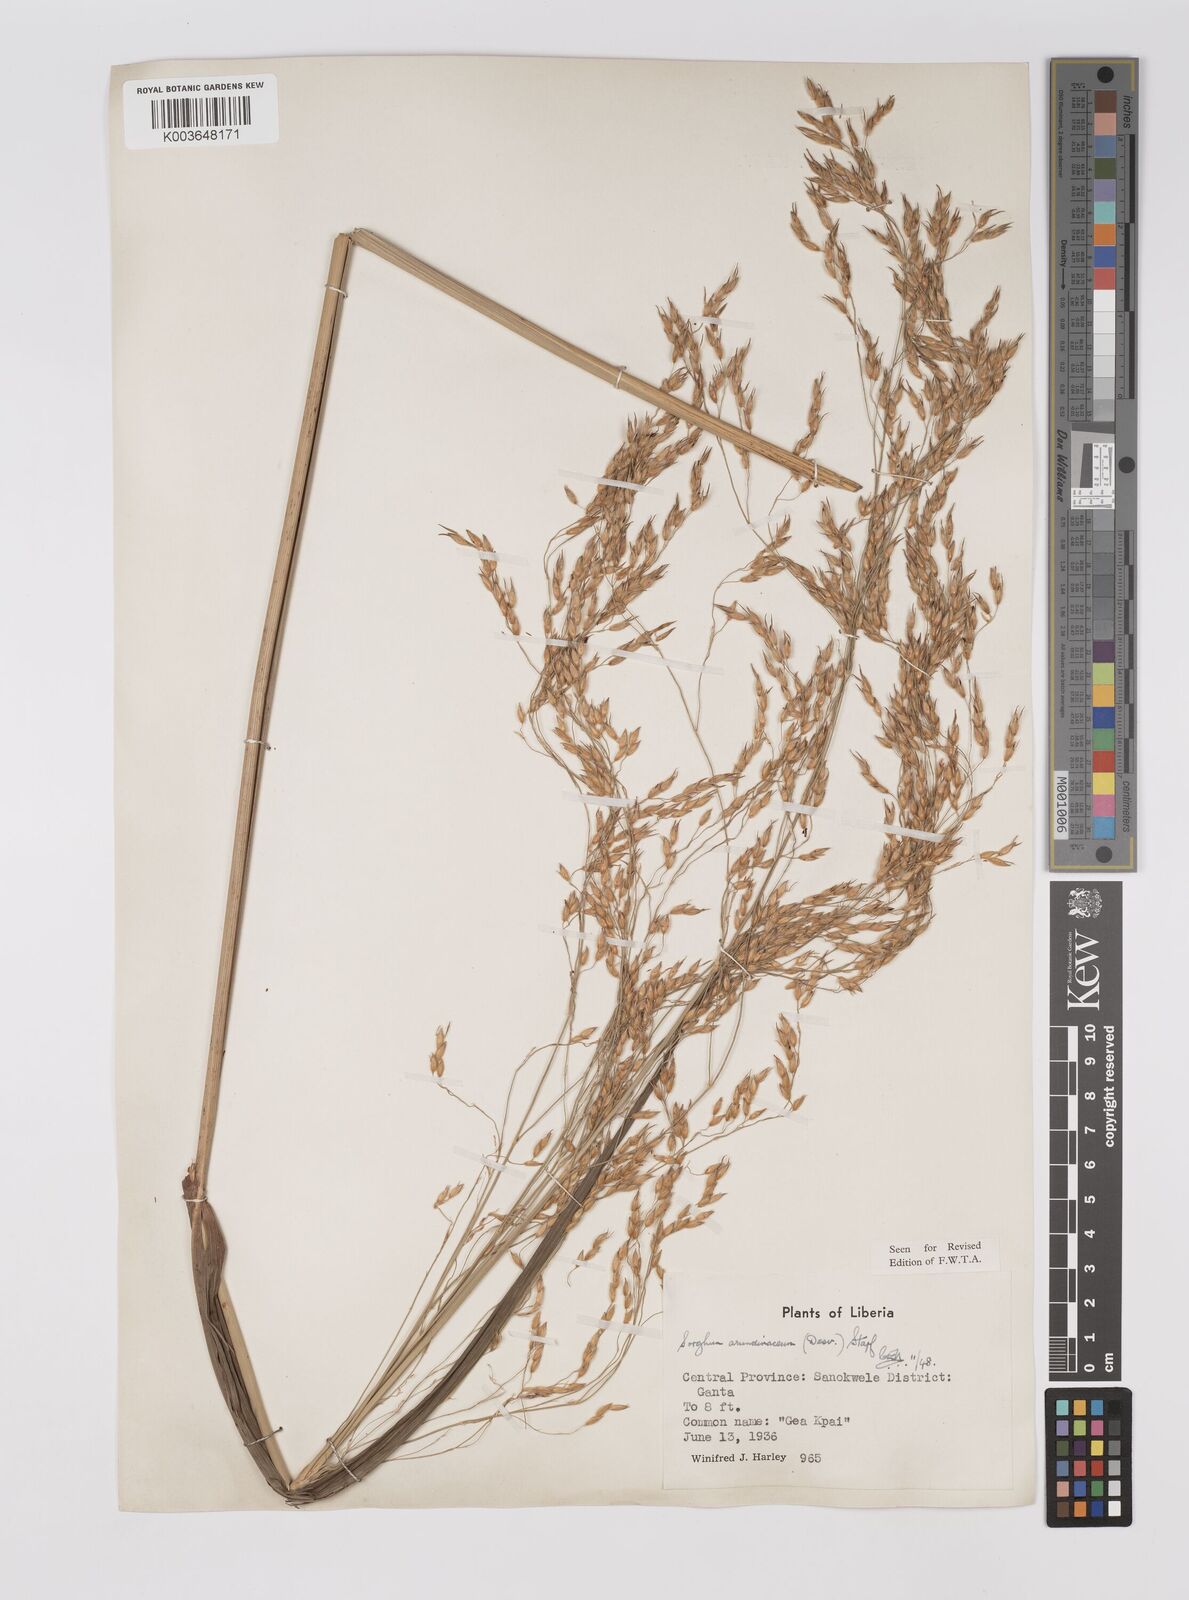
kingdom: Plantae
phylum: Tracheophyta
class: Liliopsida
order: Poales
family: Poaceae
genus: Sorghum
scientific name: Sorghum arundinaceum
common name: Sorghum
